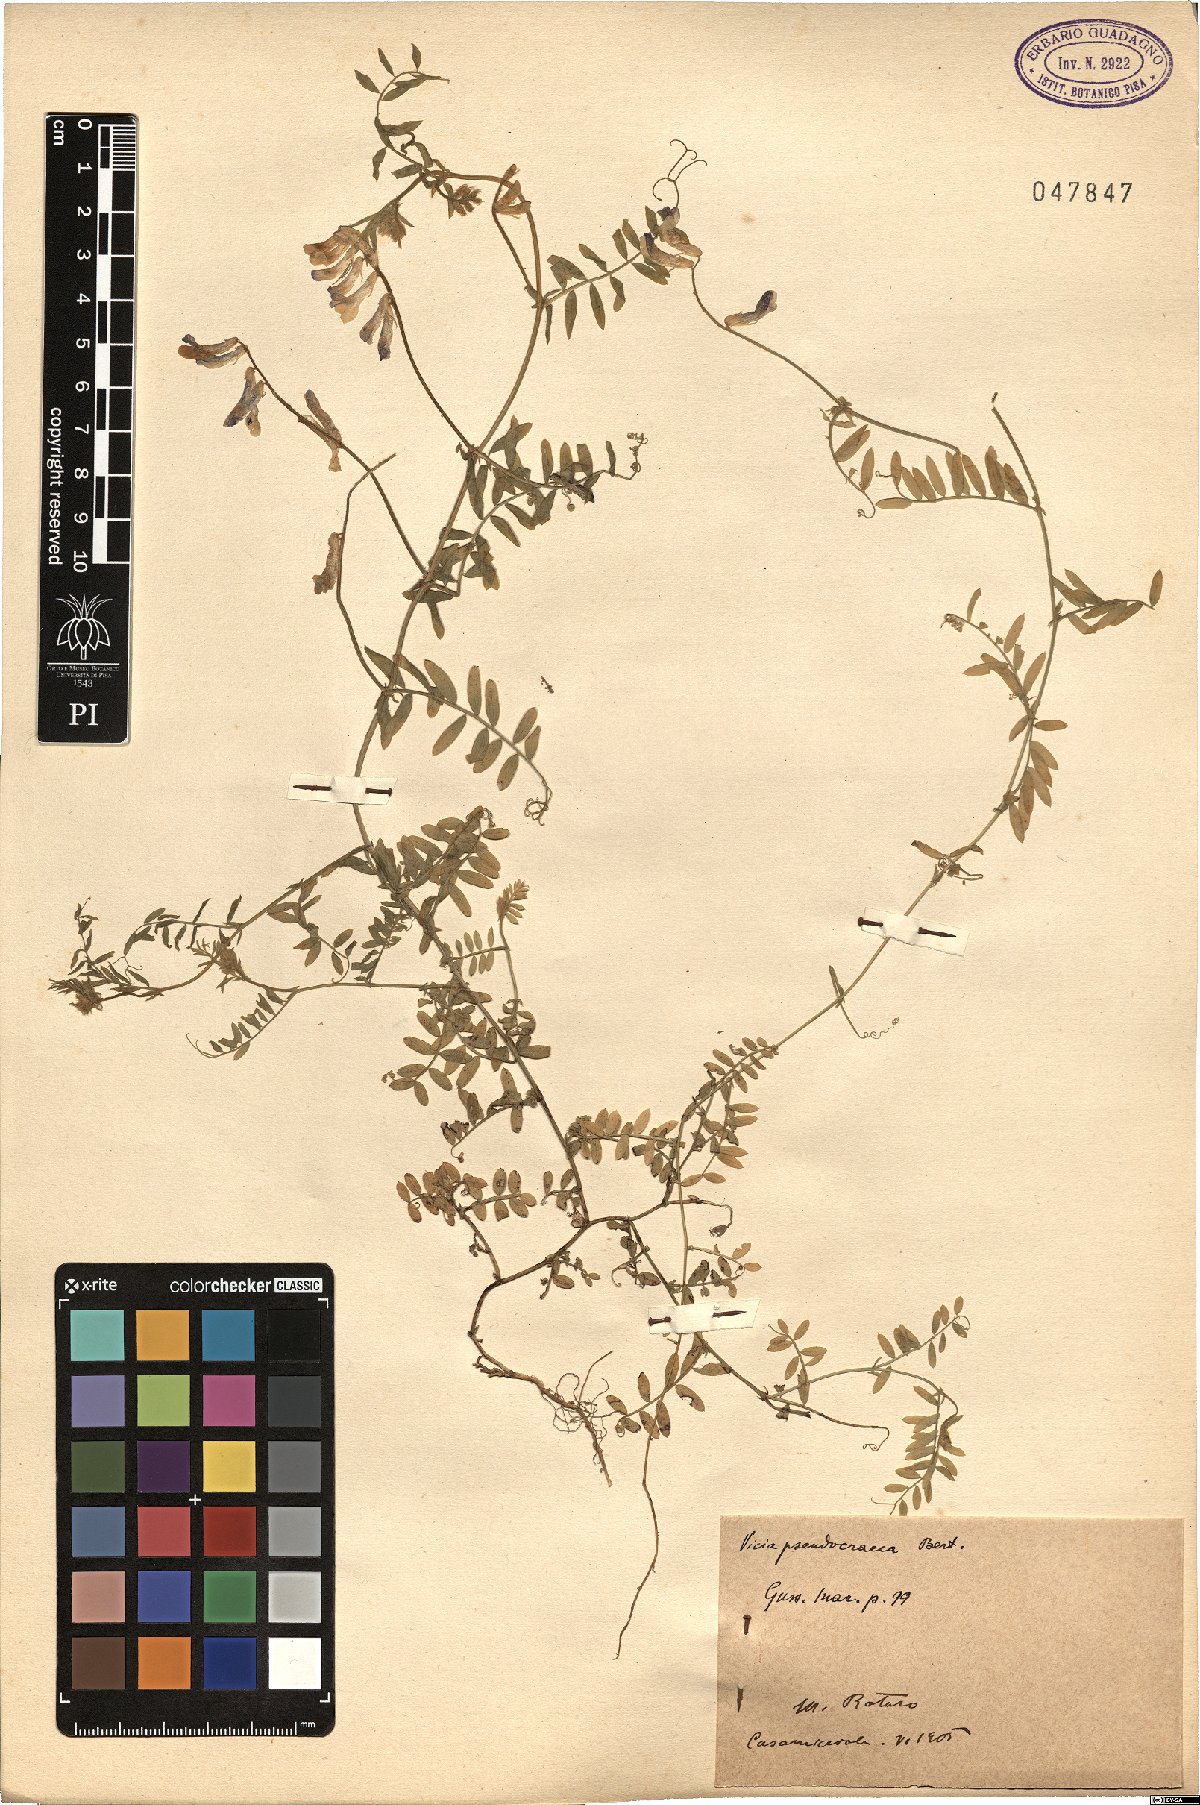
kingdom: Plantae
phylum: Tracheophyta
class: Magnoliopsida
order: Fabales
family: Fabaceae
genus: Vicia
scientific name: Vicia villosa
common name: Fodder vetch
